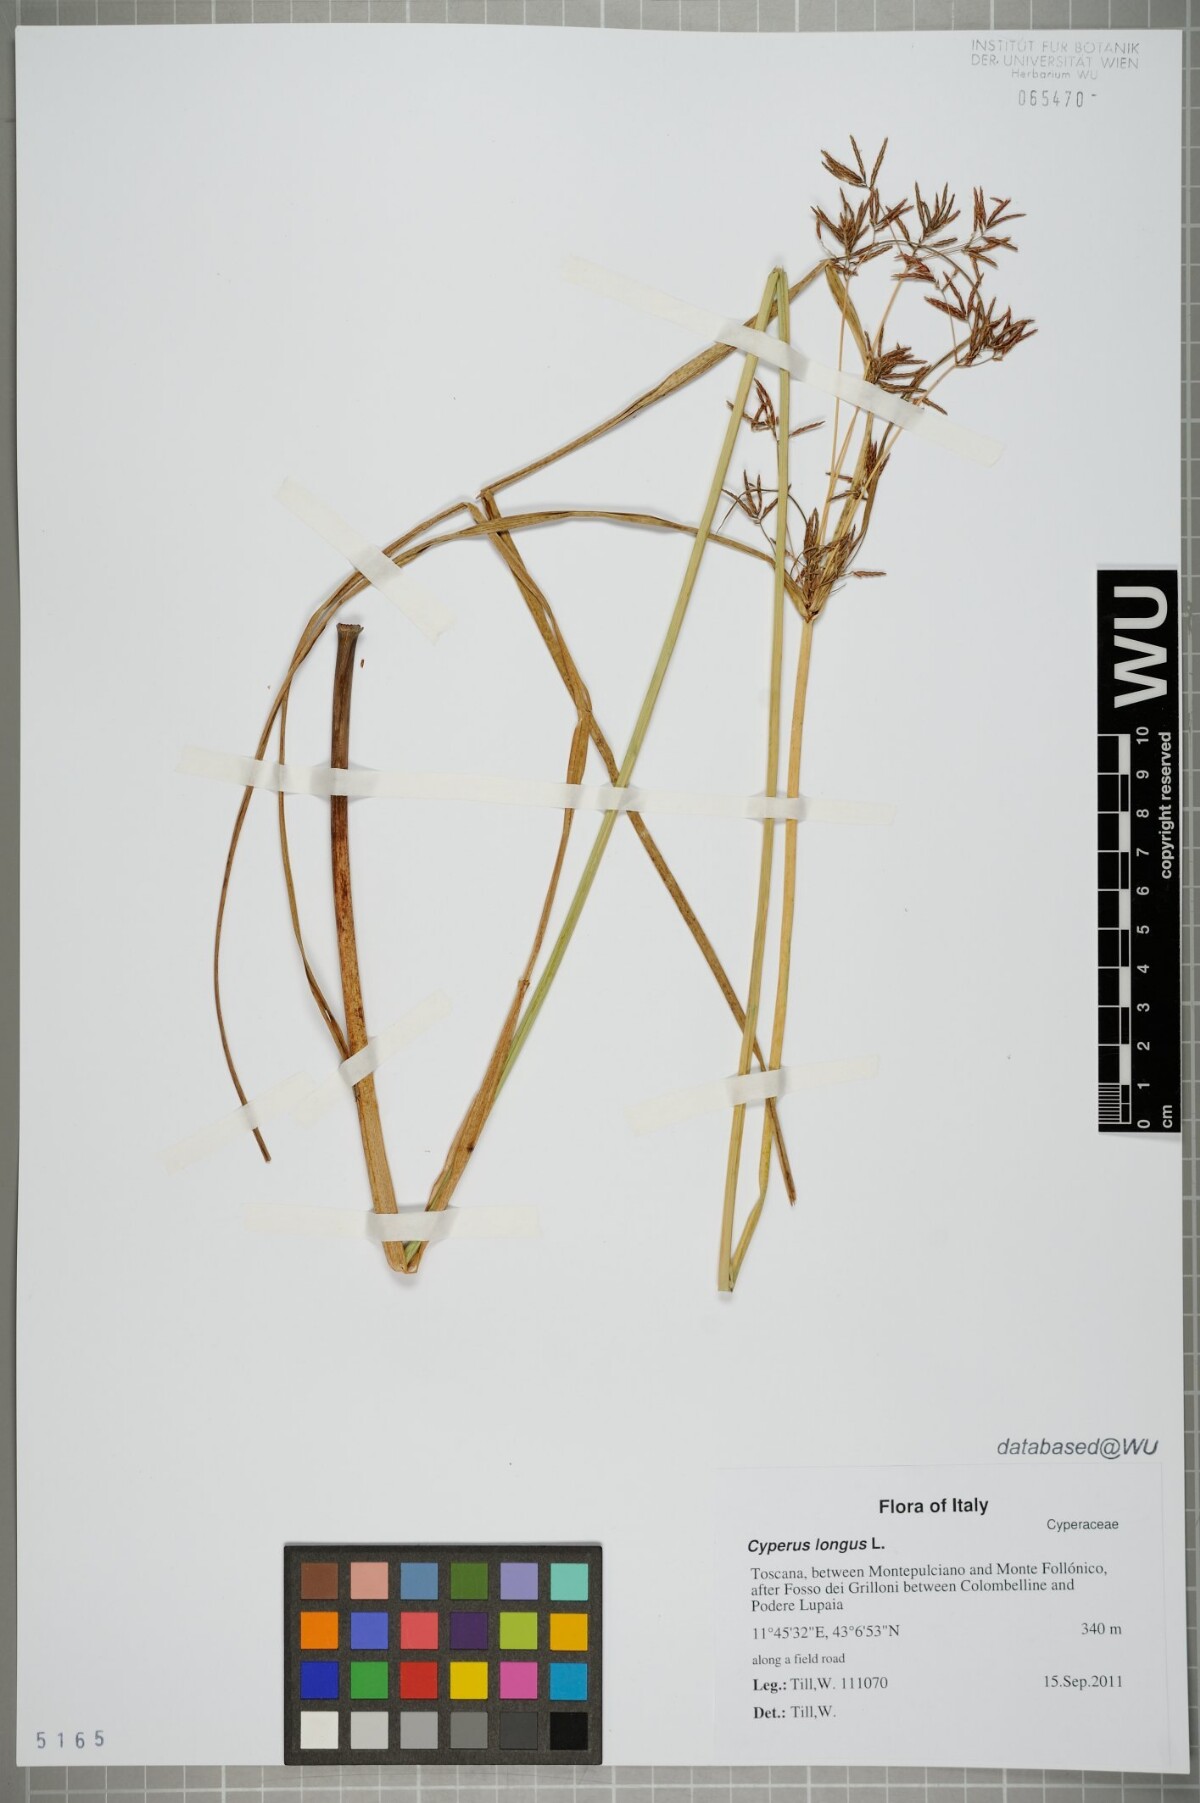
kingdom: Plantae
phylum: Tracheophyta
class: Liliopsida
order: Poales
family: Cyperaceae
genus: Cyperus
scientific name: Cyperus longus
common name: Galingale
